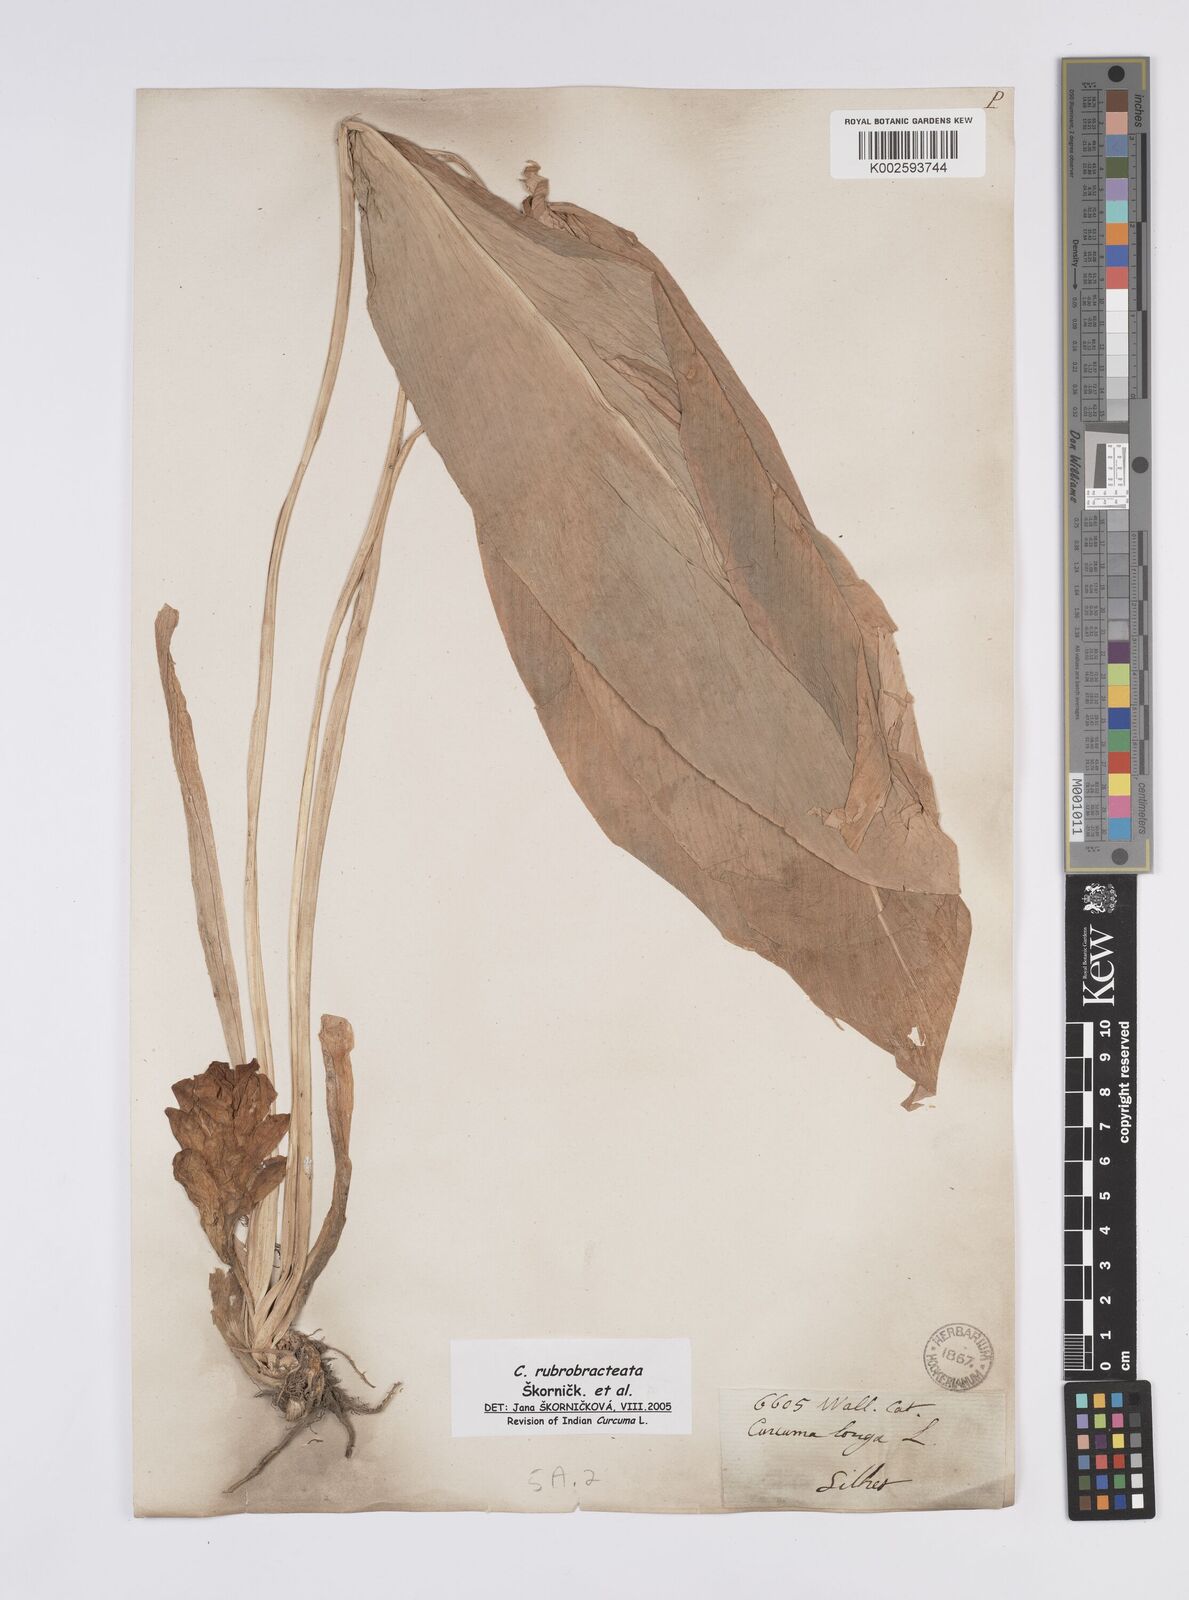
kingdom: Plantae
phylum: Tracheophyta
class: Liliopsida
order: Zingiberales
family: Zingiberaceae
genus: Curcuma
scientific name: Curcuma rubrobracteata
